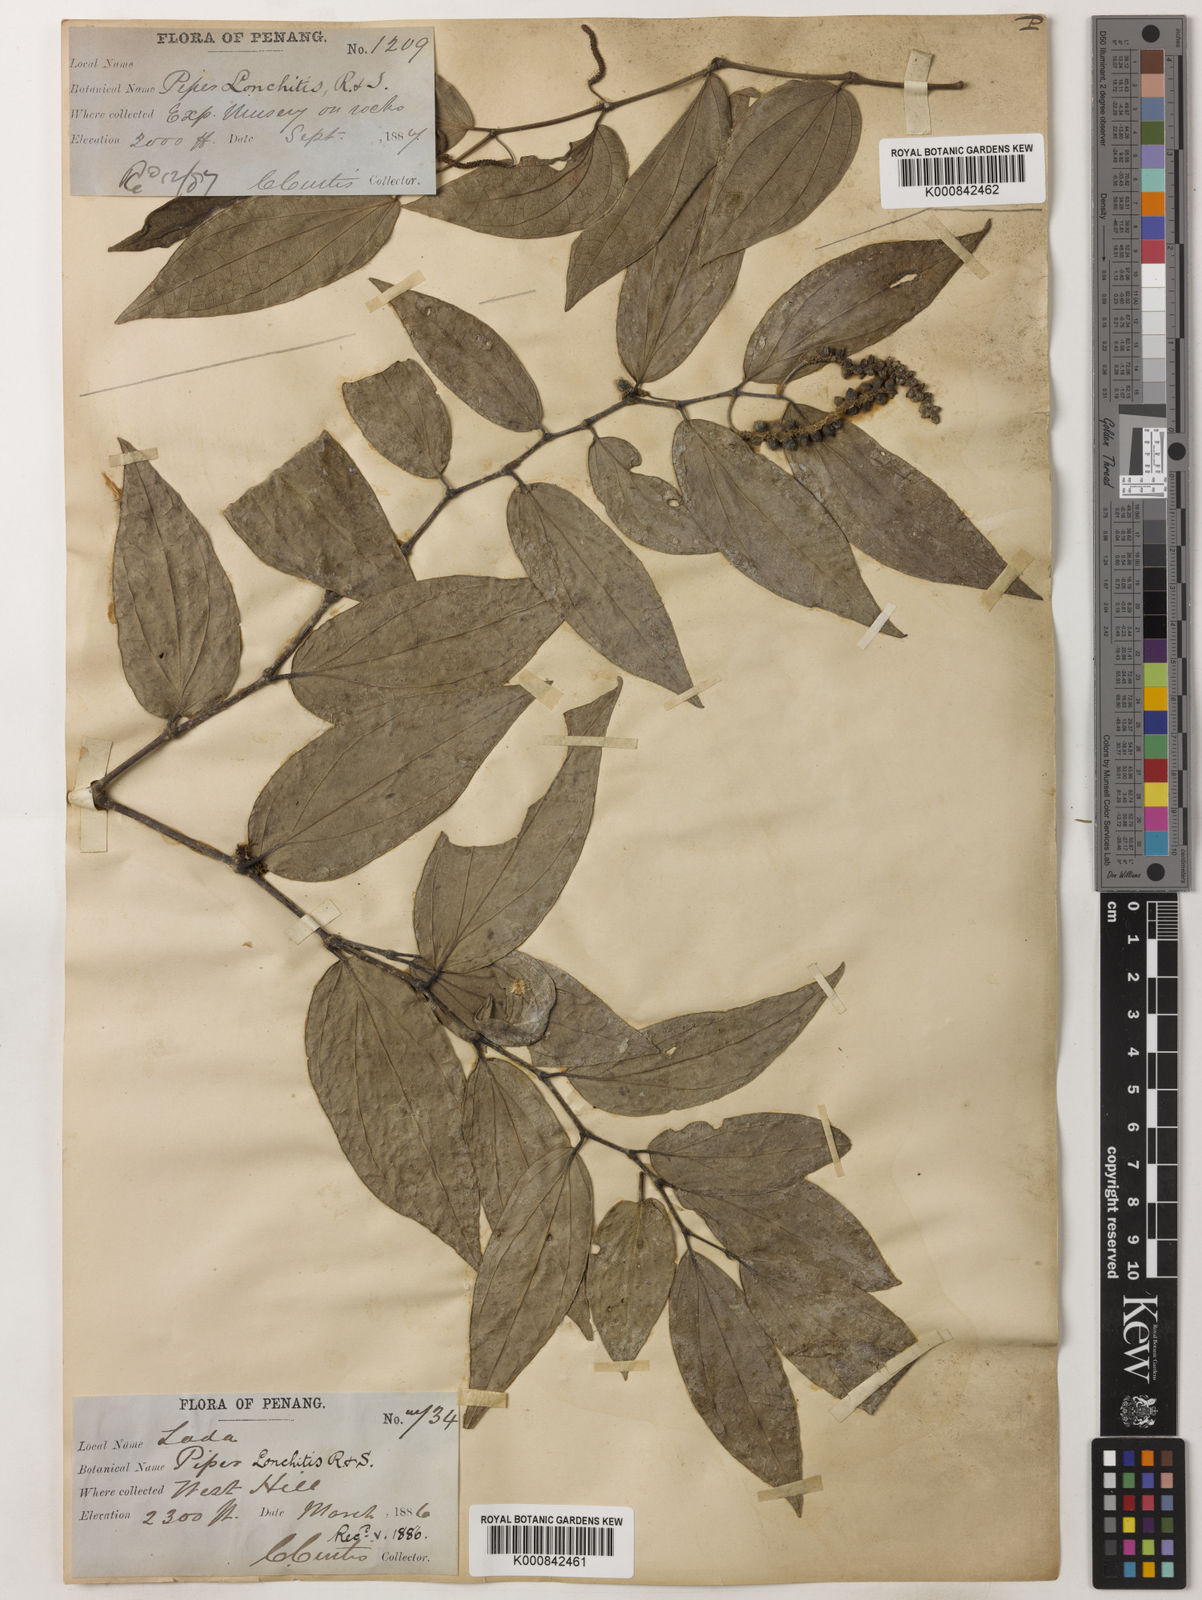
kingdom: Plantae
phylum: Tracheophyta
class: Magnoliopsida
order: Piperales
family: Piperaceae
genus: Piper
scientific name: Piper lonchites
